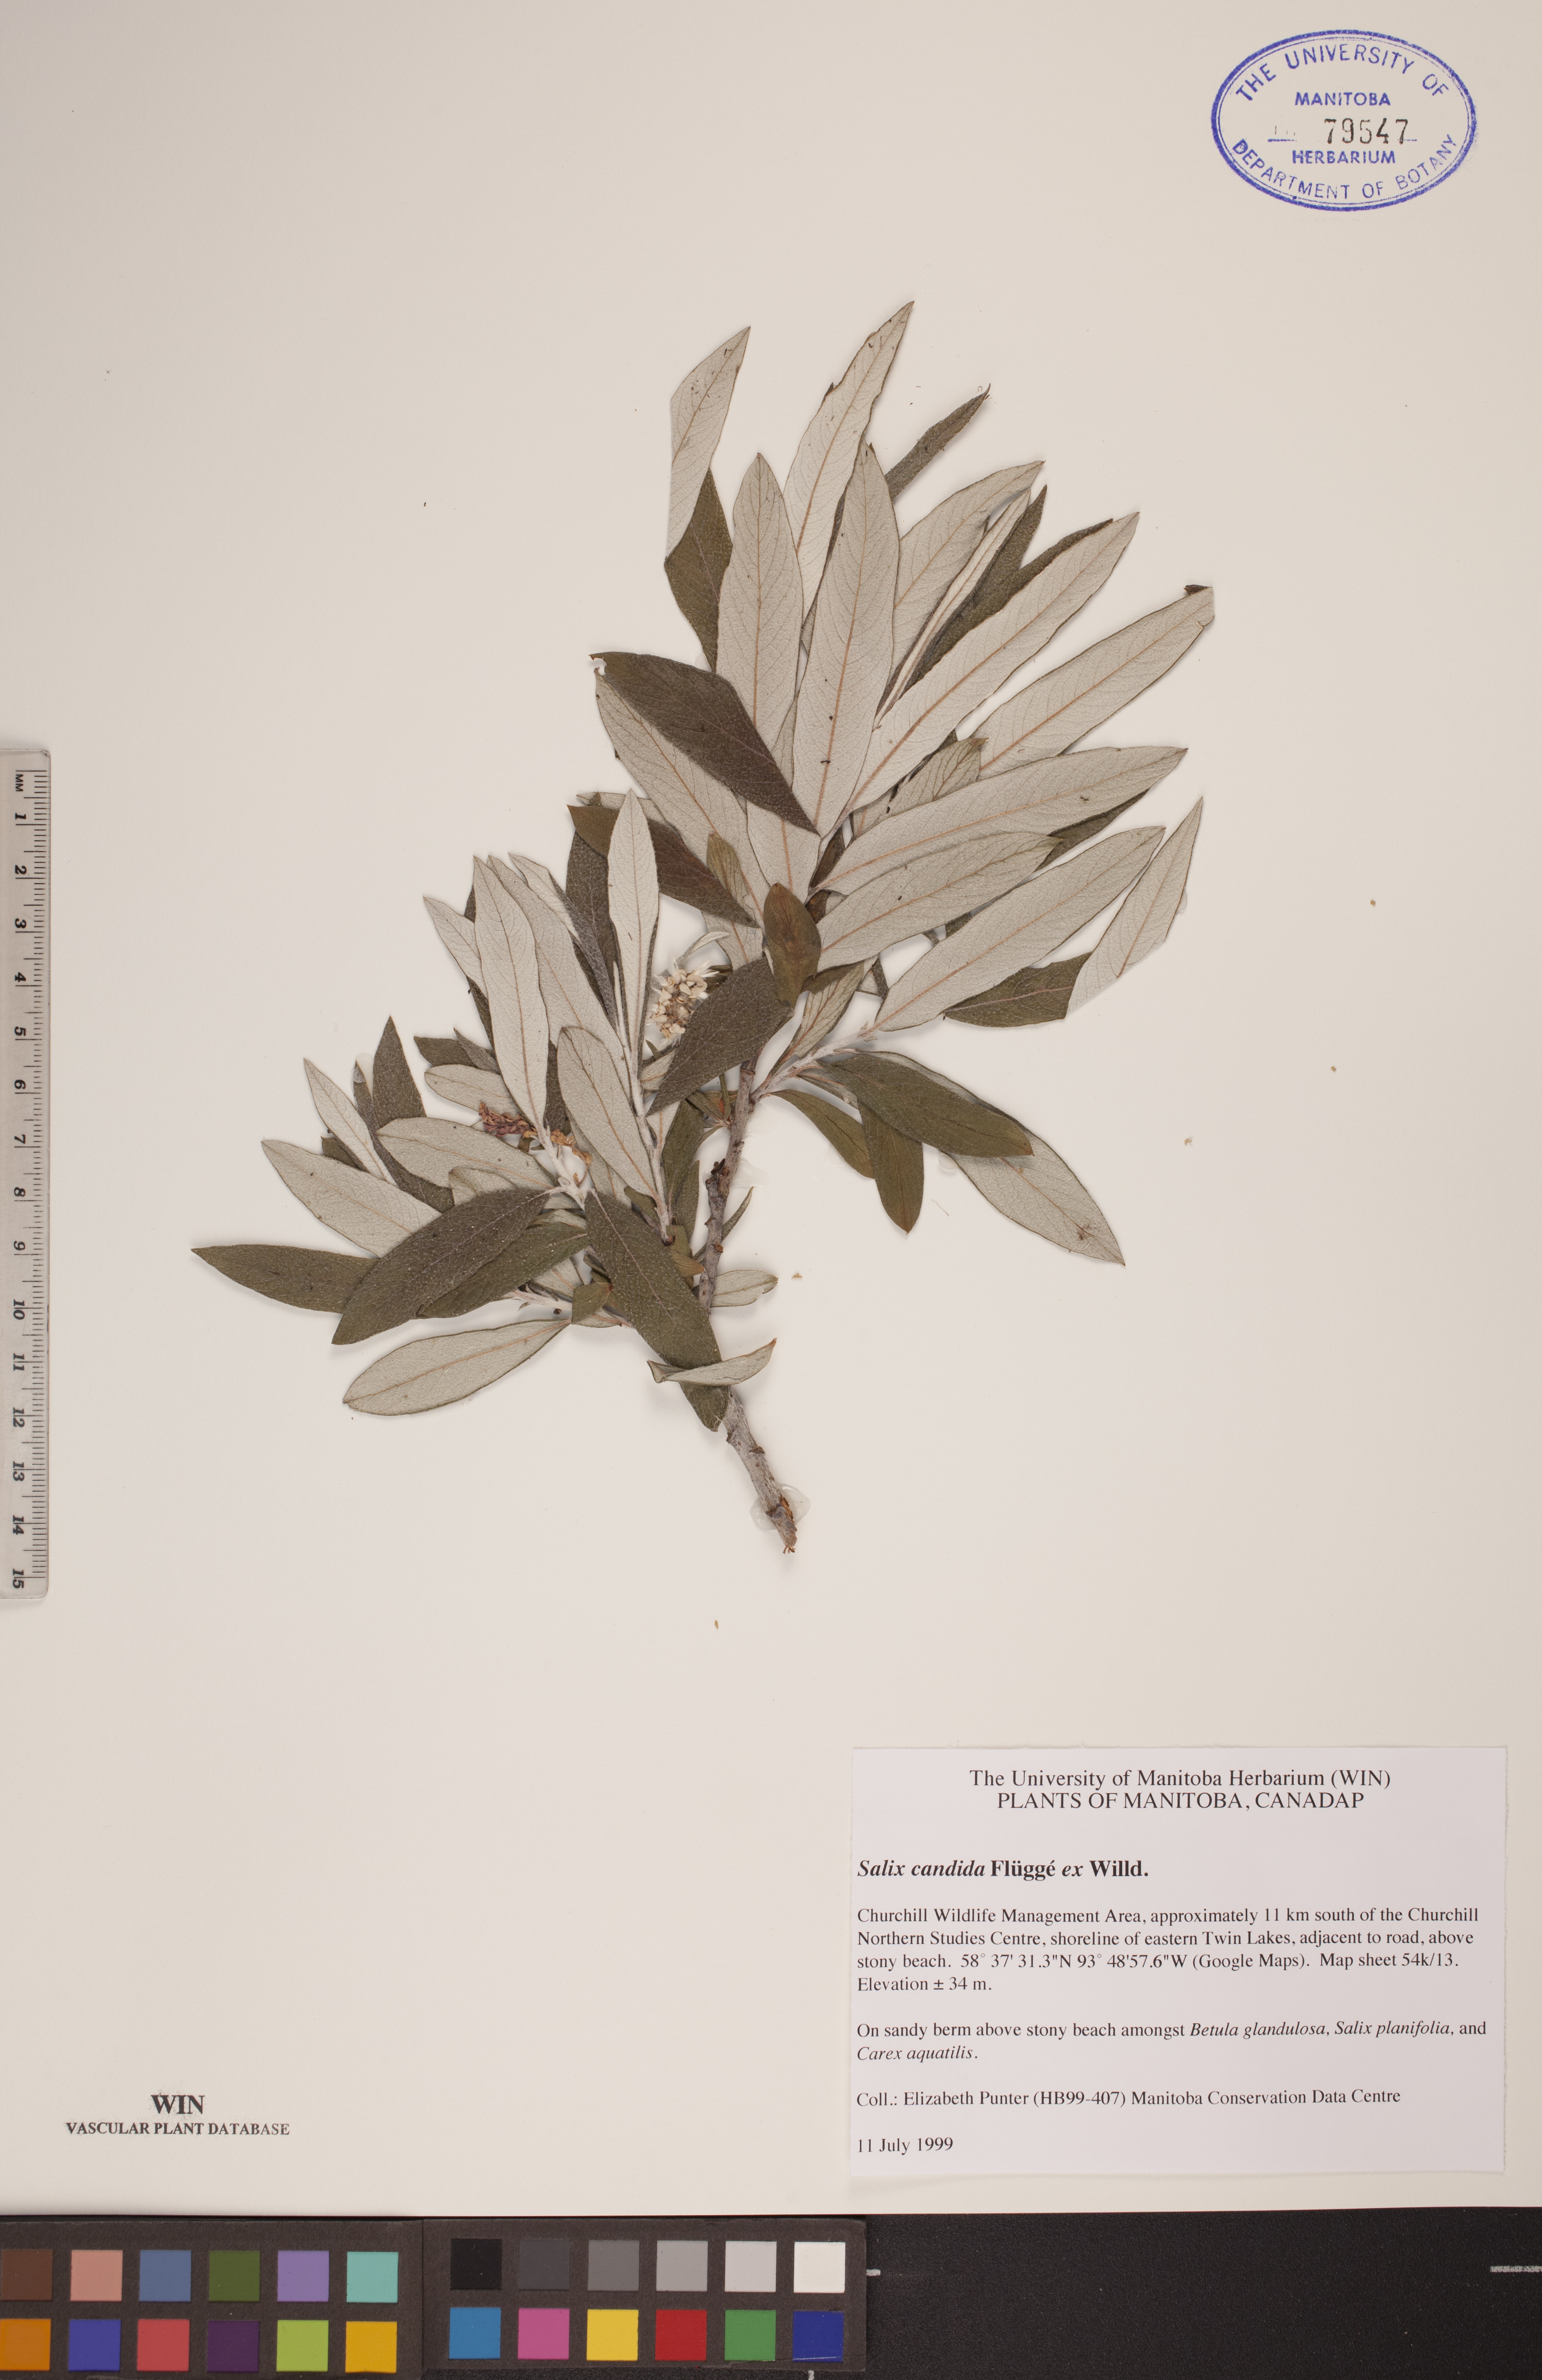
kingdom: Plantae
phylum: Tracheophyta
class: Magnoliopsida
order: Malpighiales
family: Salicaceae
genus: Salix
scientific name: Salix candida
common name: Hoary willow
